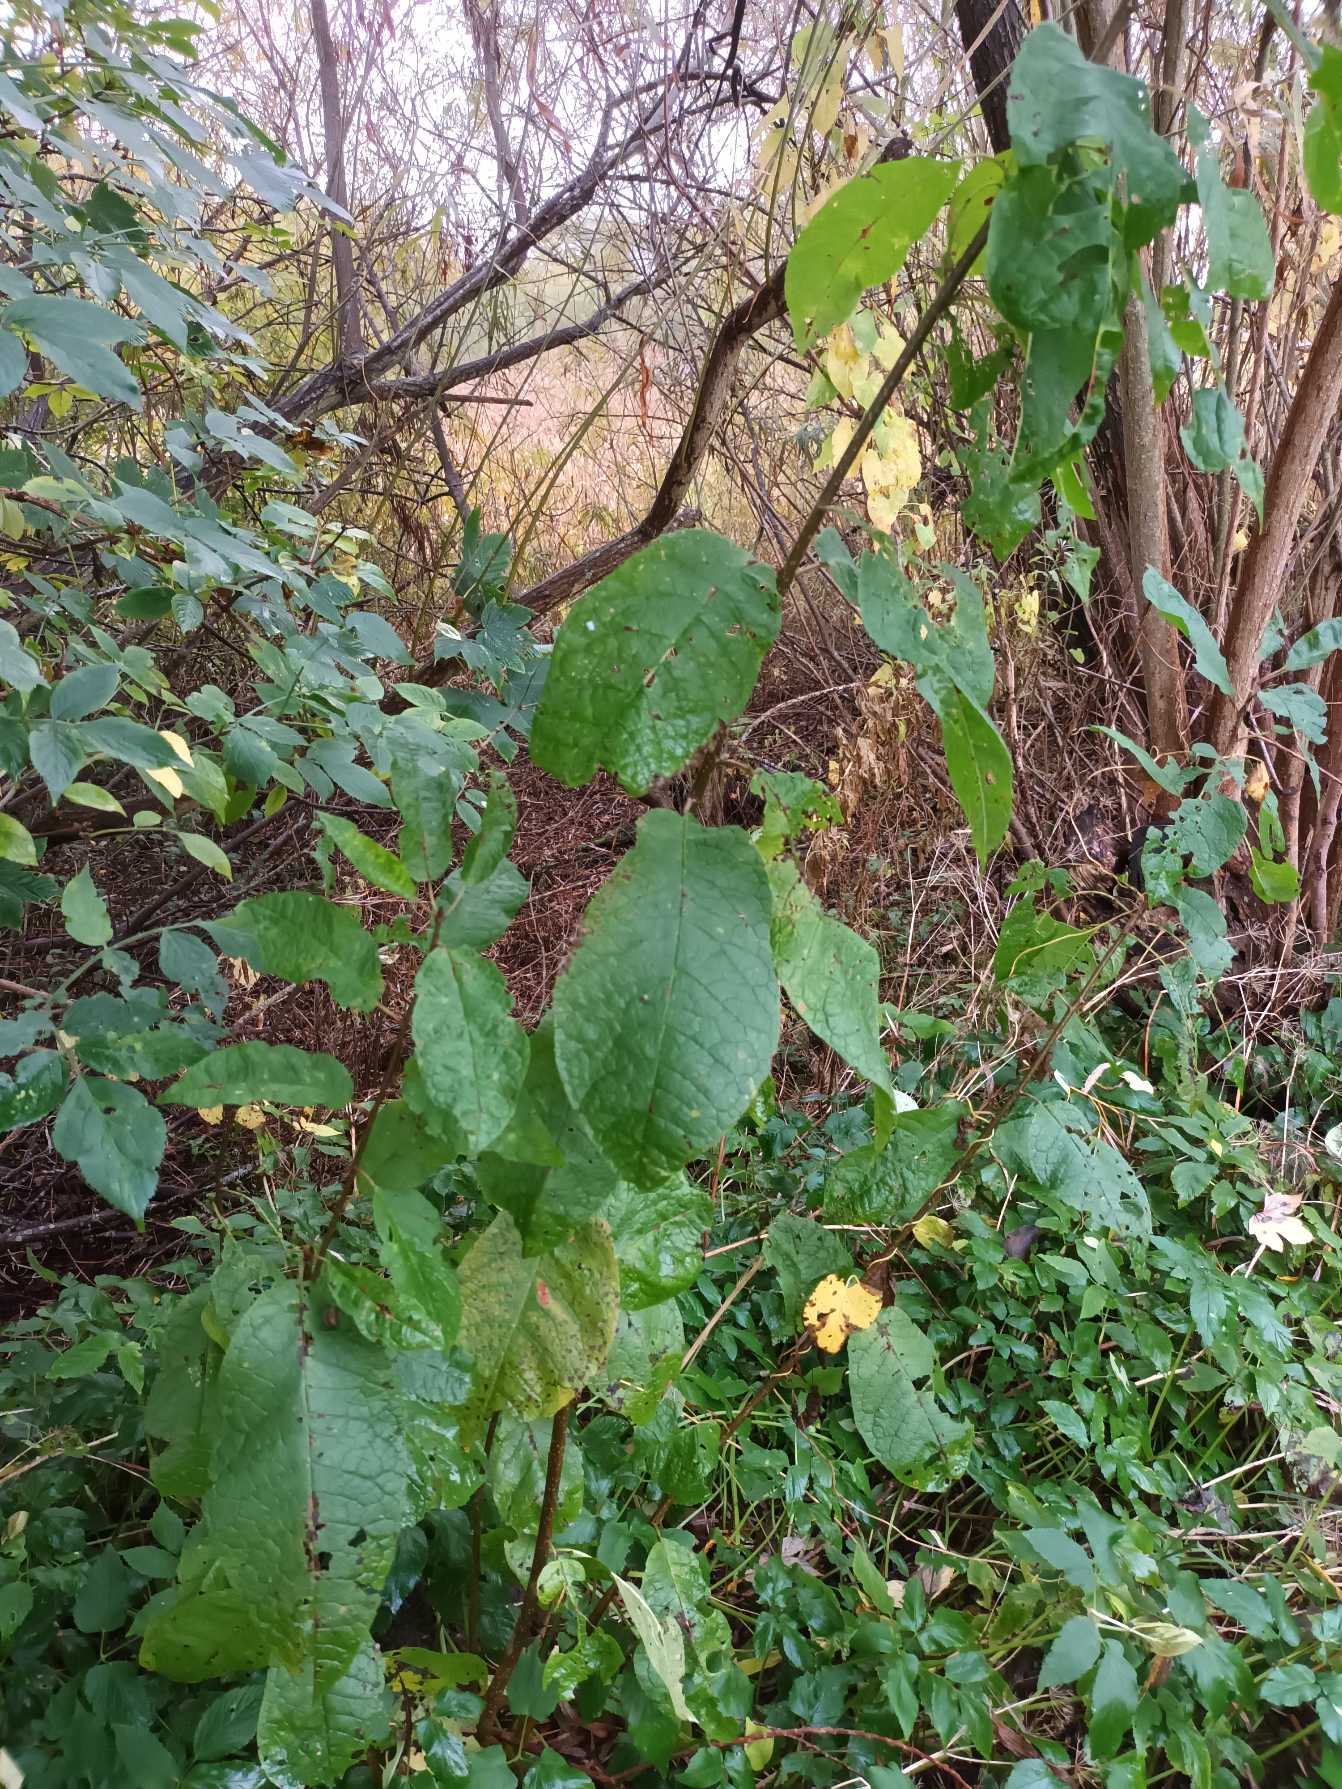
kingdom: Plantae
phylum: Tracheophyta
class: Magnoliopsida
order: Rosales
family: Rosaceae
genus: Prunus
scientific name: Prunus padus
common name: Almindelig hæg
